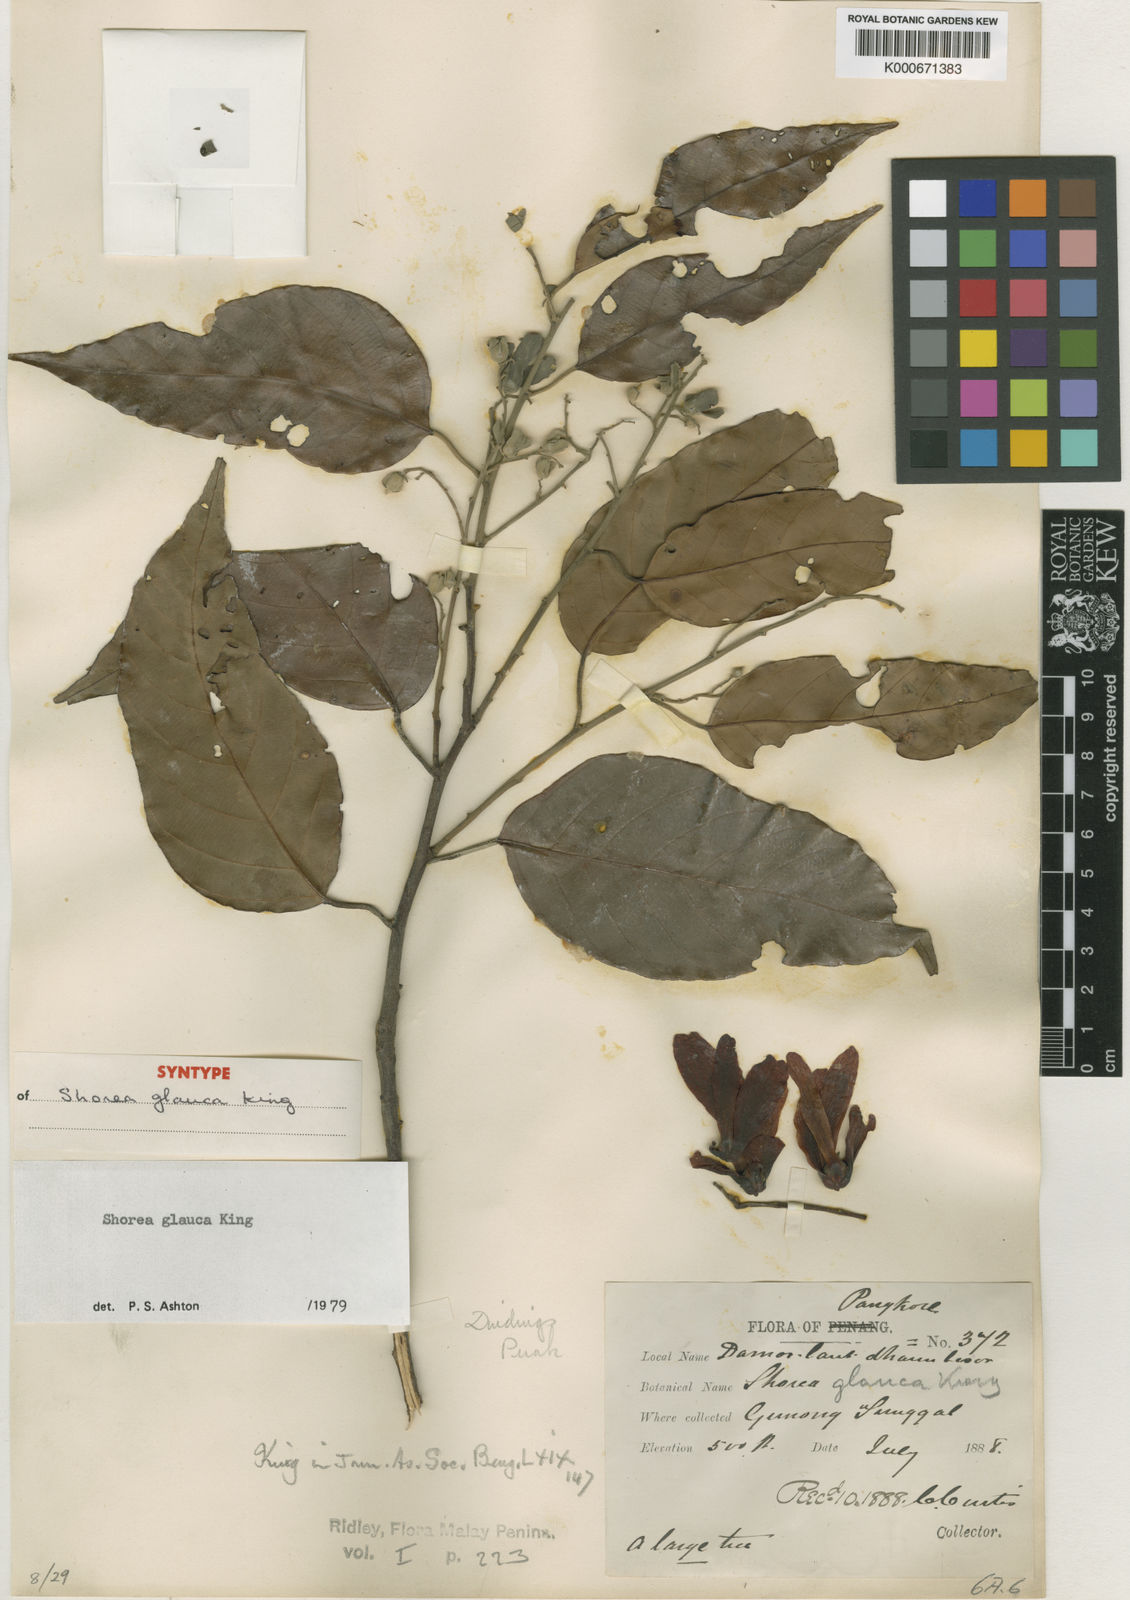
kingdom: Plantae
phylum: Tracheophyta
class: Magnoliopsida
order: Malvales
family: Dipterocarpaceae
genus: Shorea
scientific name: Shorea glauca
